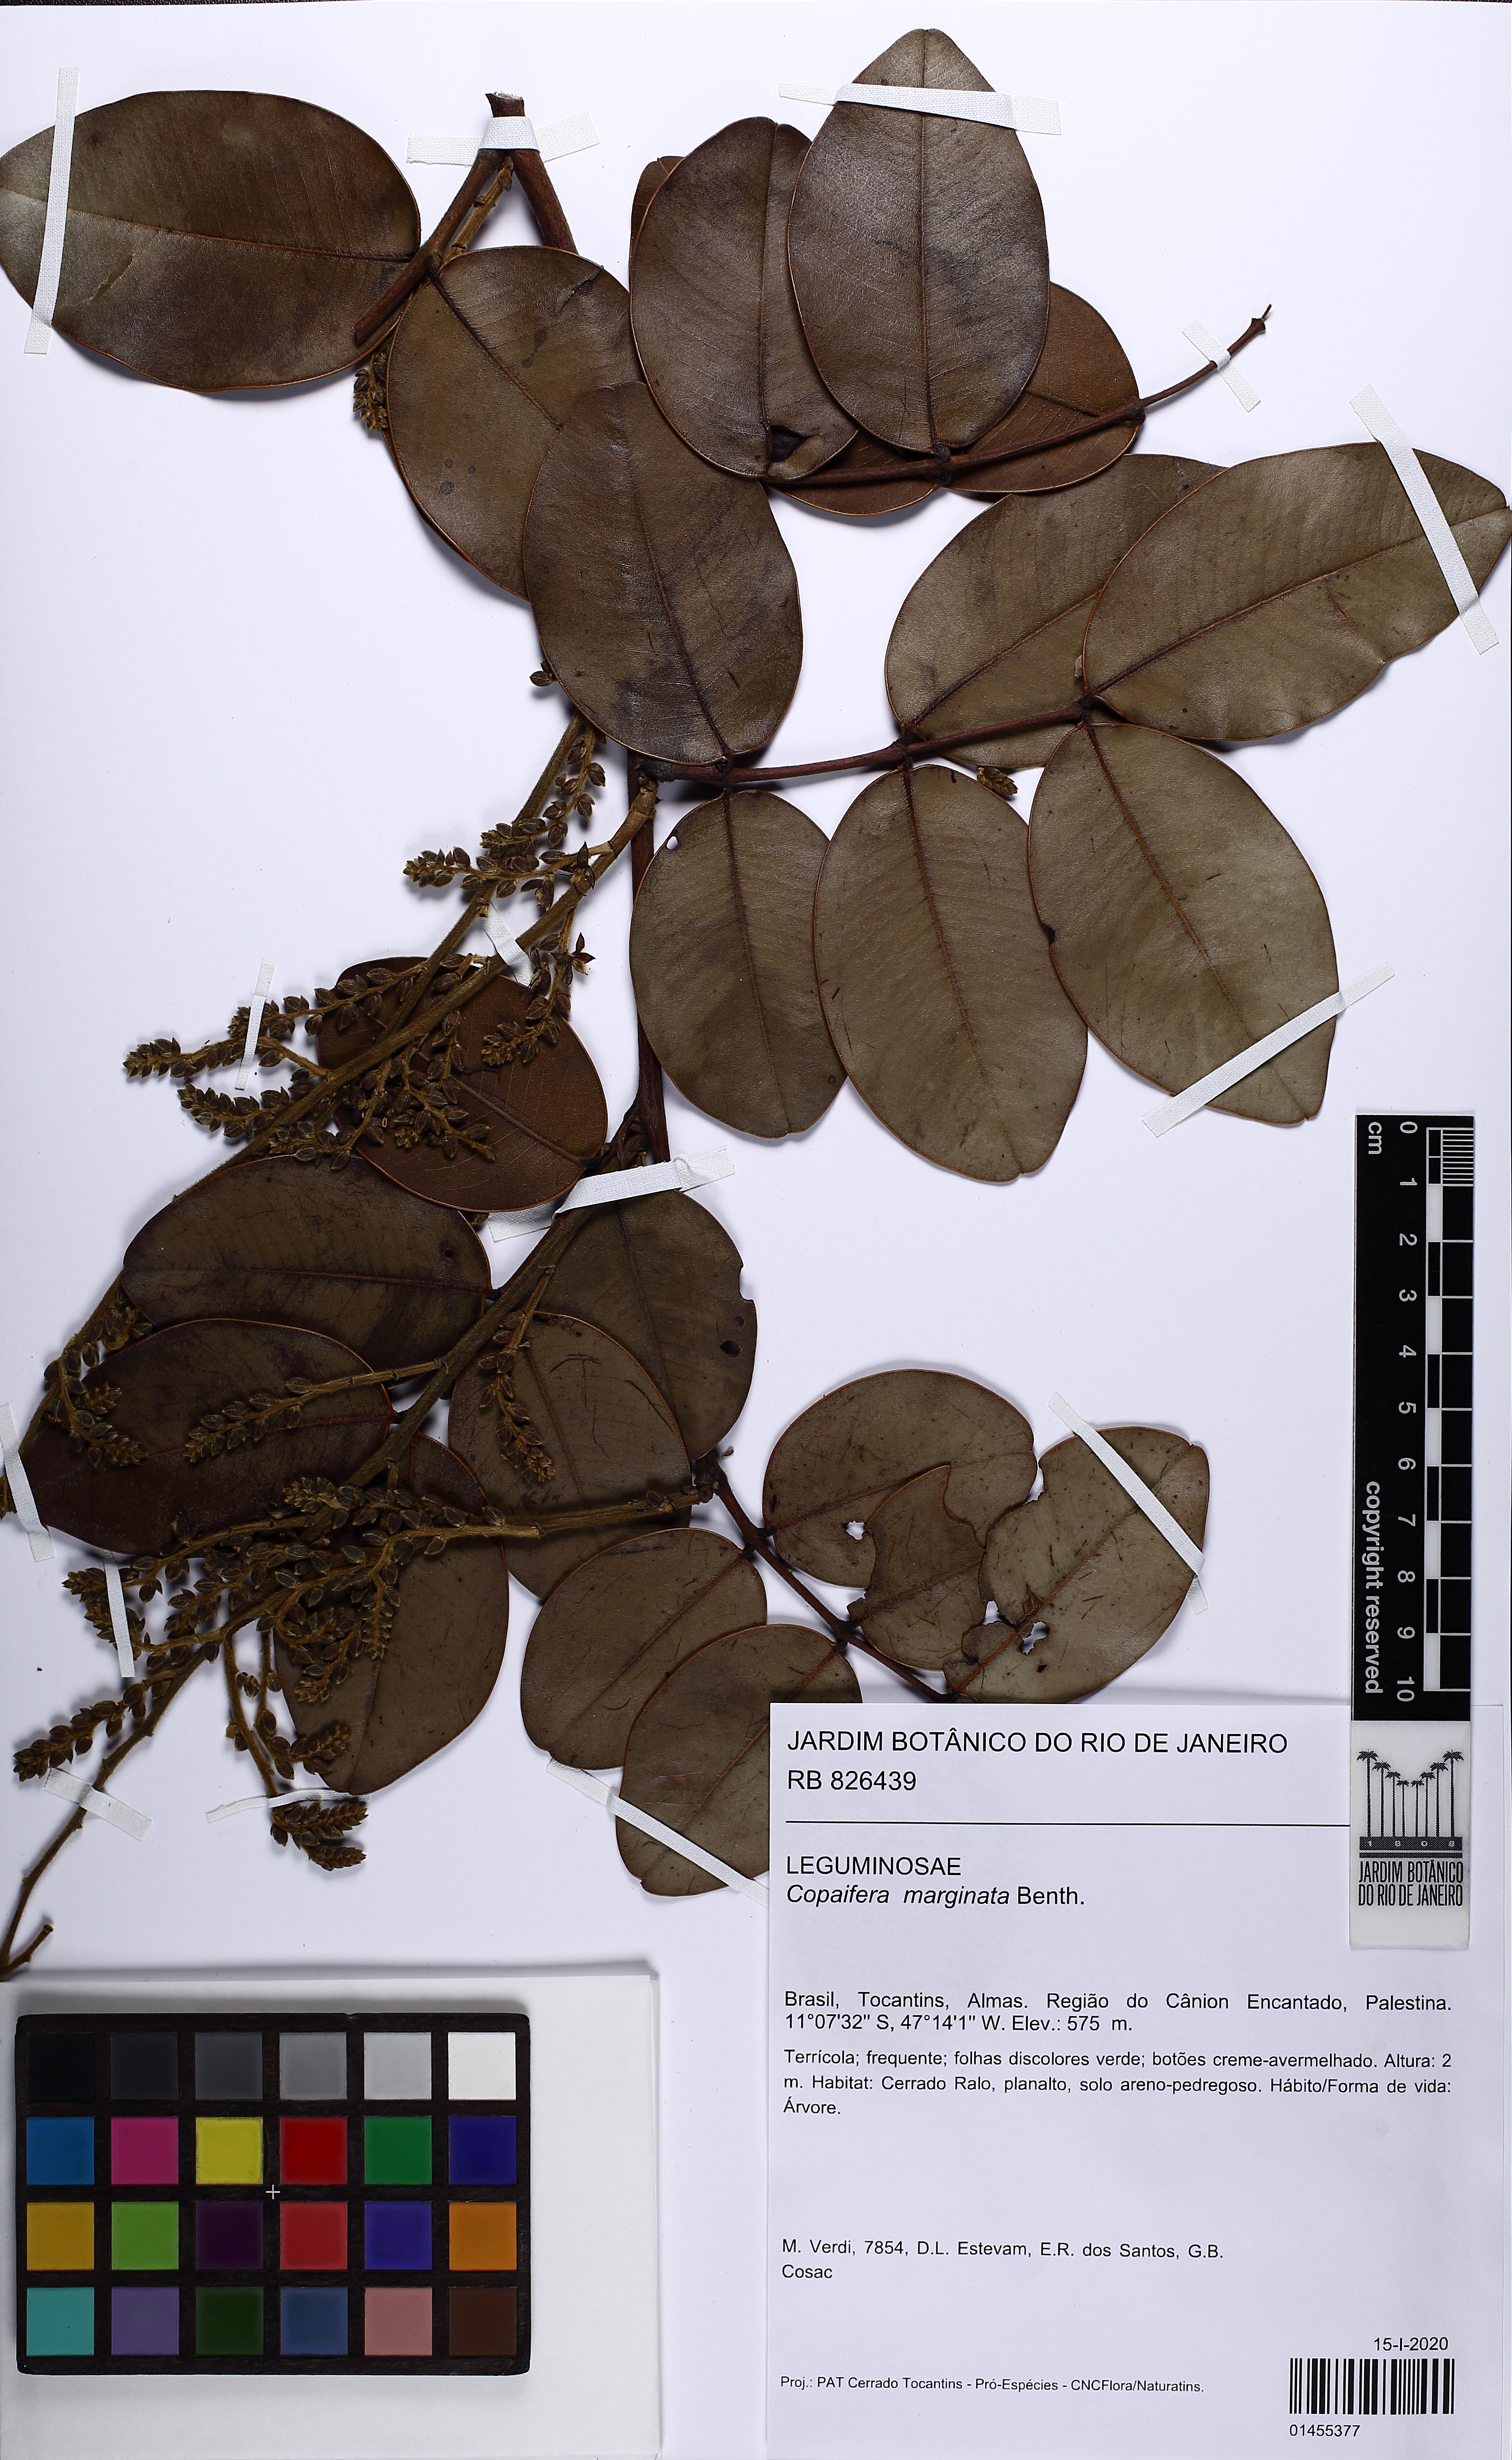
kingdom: Plantae
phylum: Tracheophyta
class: Magnoliopsida
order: Fabales
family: Fabaceae
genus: Copaifera
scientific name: Copaifera marginata
